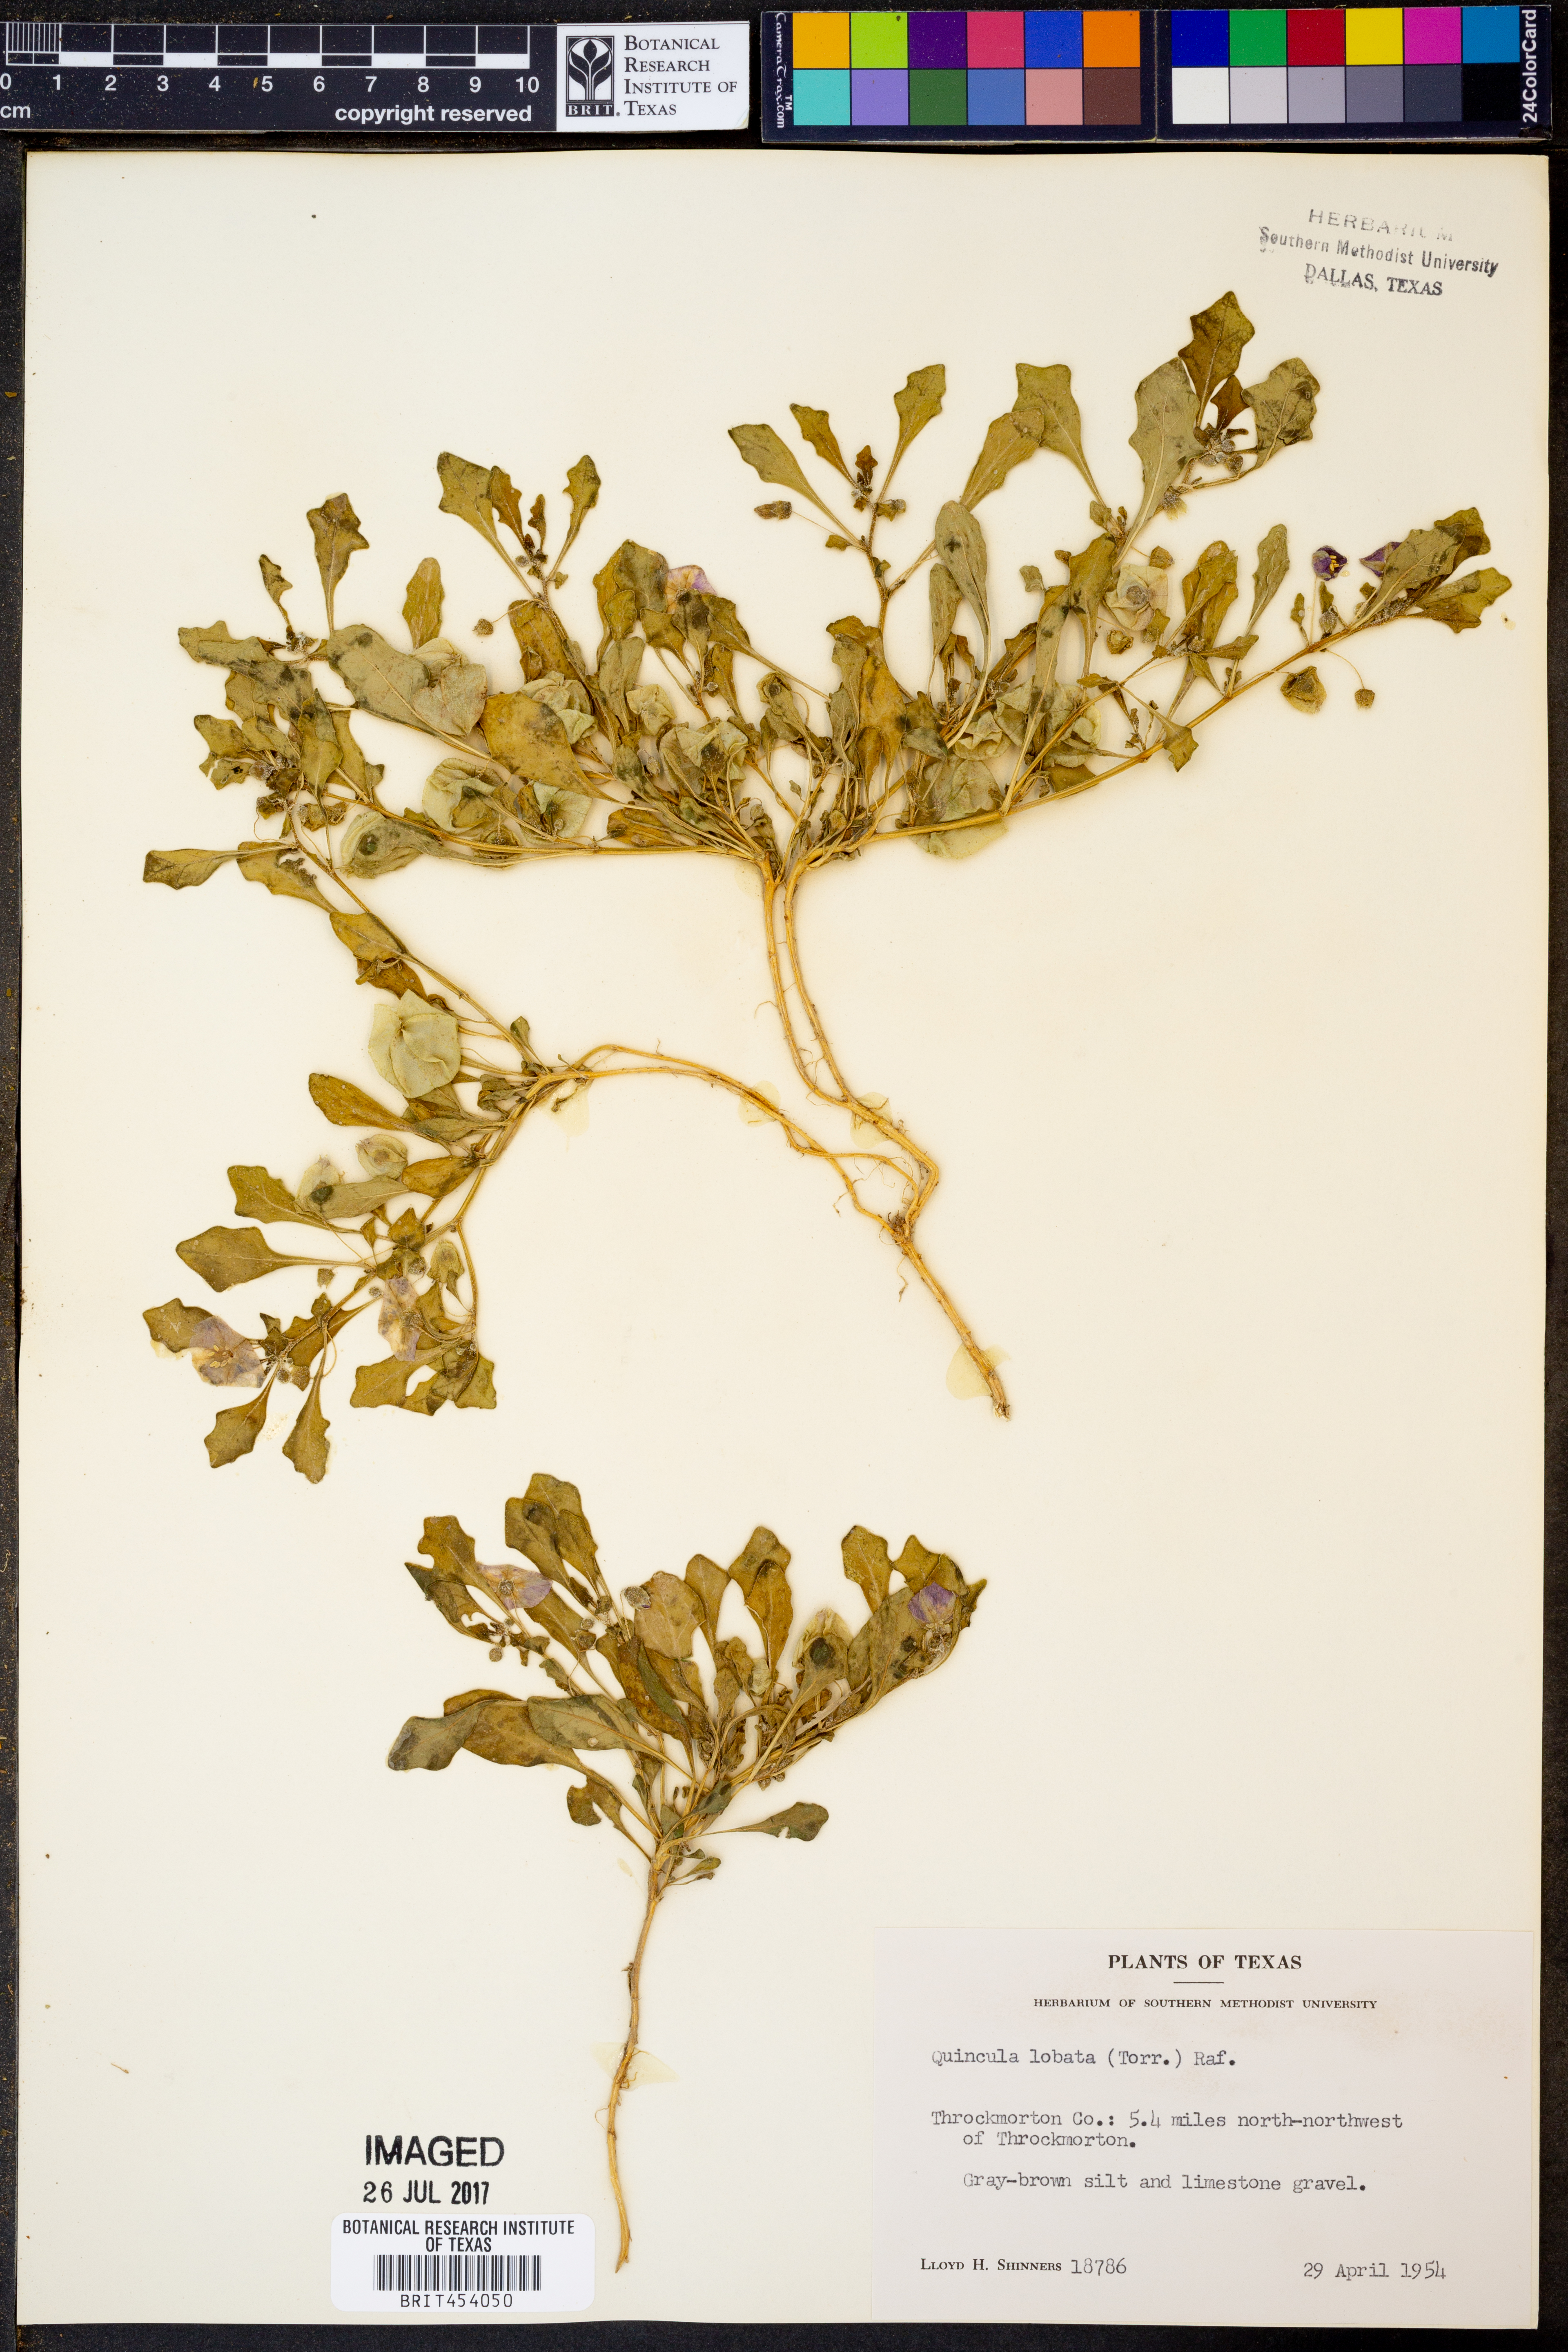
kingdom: Plantae
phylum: Tracheophyta
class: Magnoliopsida
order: Solanales
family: Solanaceae
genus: Quincula
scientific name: Quincula lobata
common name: Purple-ground-cherry
